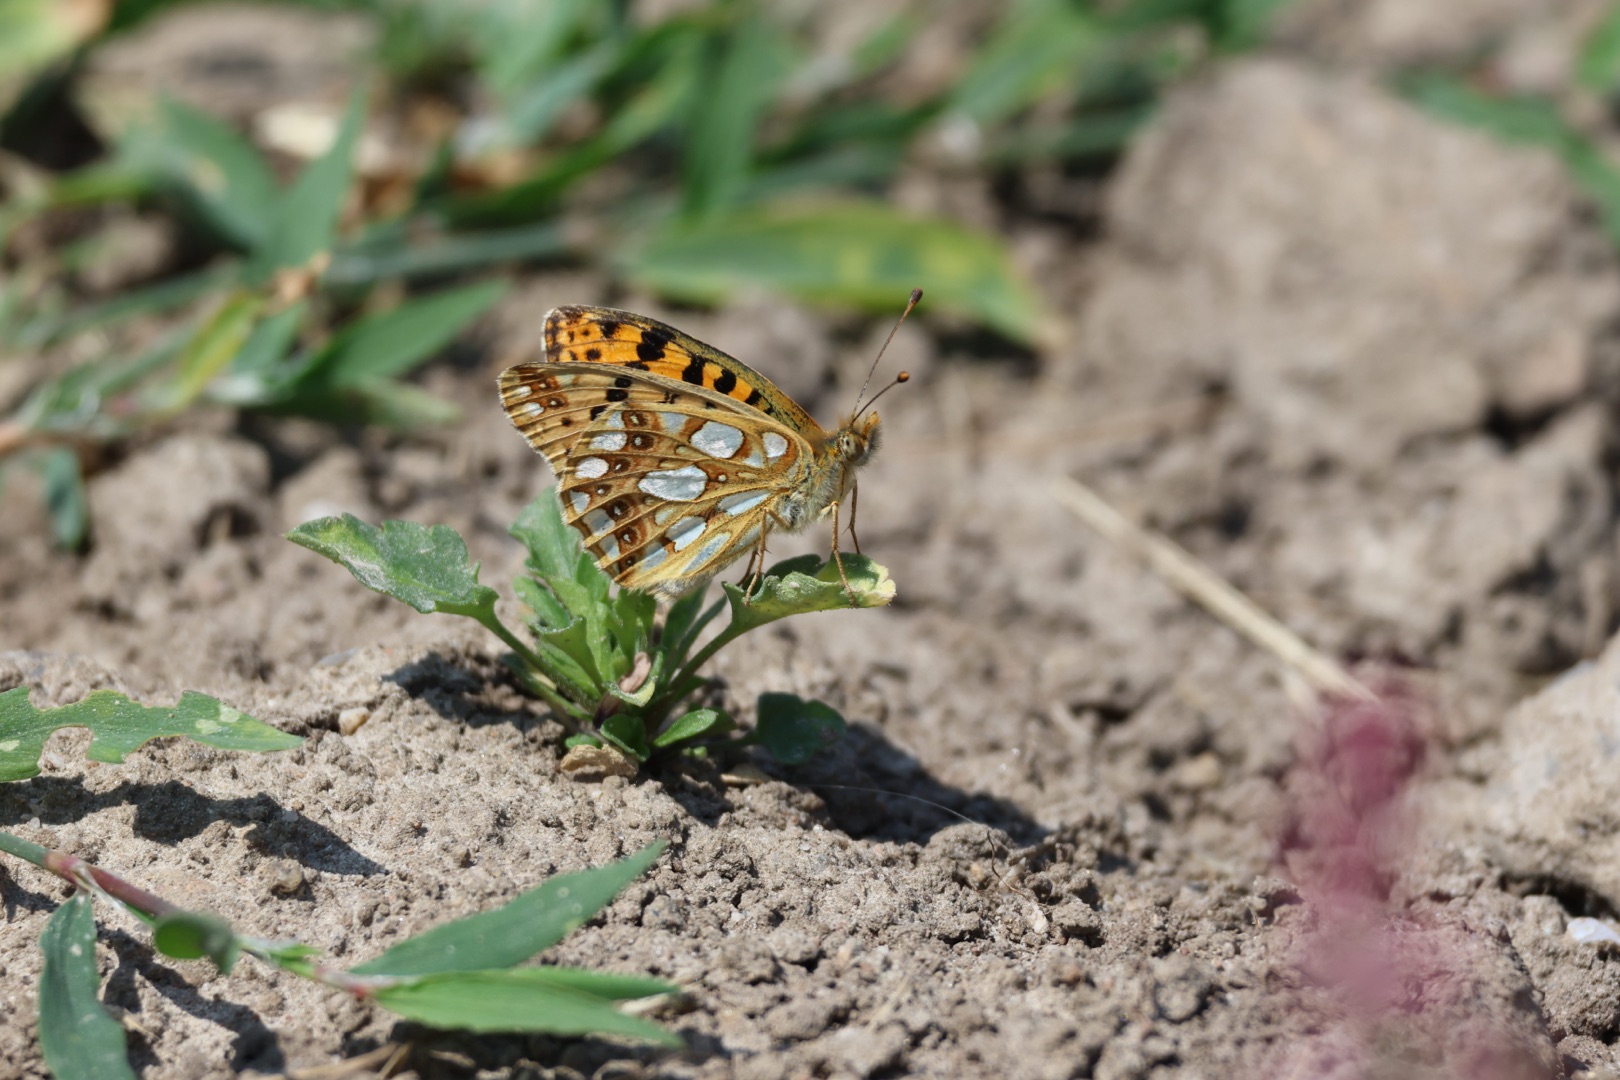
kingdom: Animalia
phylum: Arthropoda
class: Insecta
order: Lepidoptera
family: Nymphalidae
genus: Issoria
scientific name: Issoria lathonia
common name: Storplettet perlemorsommerfugl
